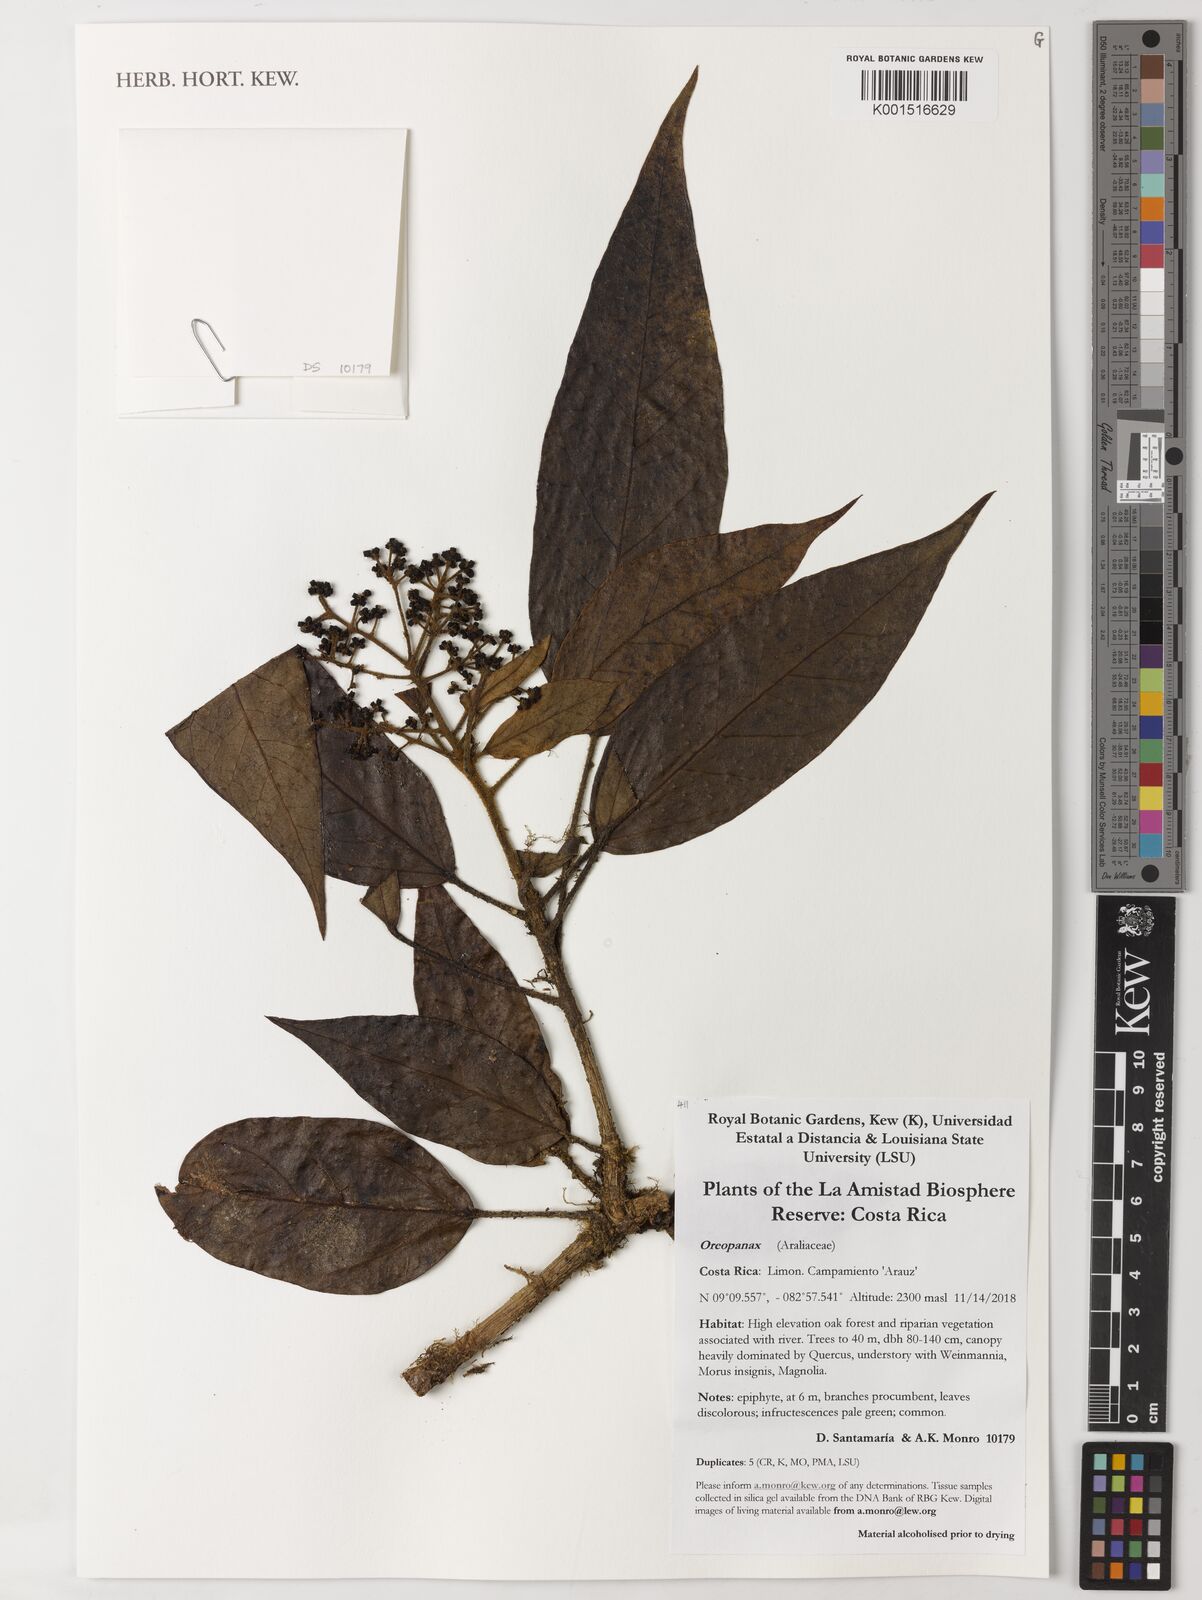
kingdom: Plantae
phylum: Tracheophyta
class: Magnoliopsida
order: Apiales
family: Araliaceae
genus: Oreopanax
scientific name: Oreopanax
